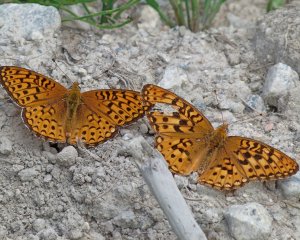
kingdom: Animalia
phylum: Arthropoda
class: Insecta
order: Lepidoptera
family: Nymphalidae
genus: Speyeria
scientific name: Speyeria zerene
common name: Zerene Fritillary
